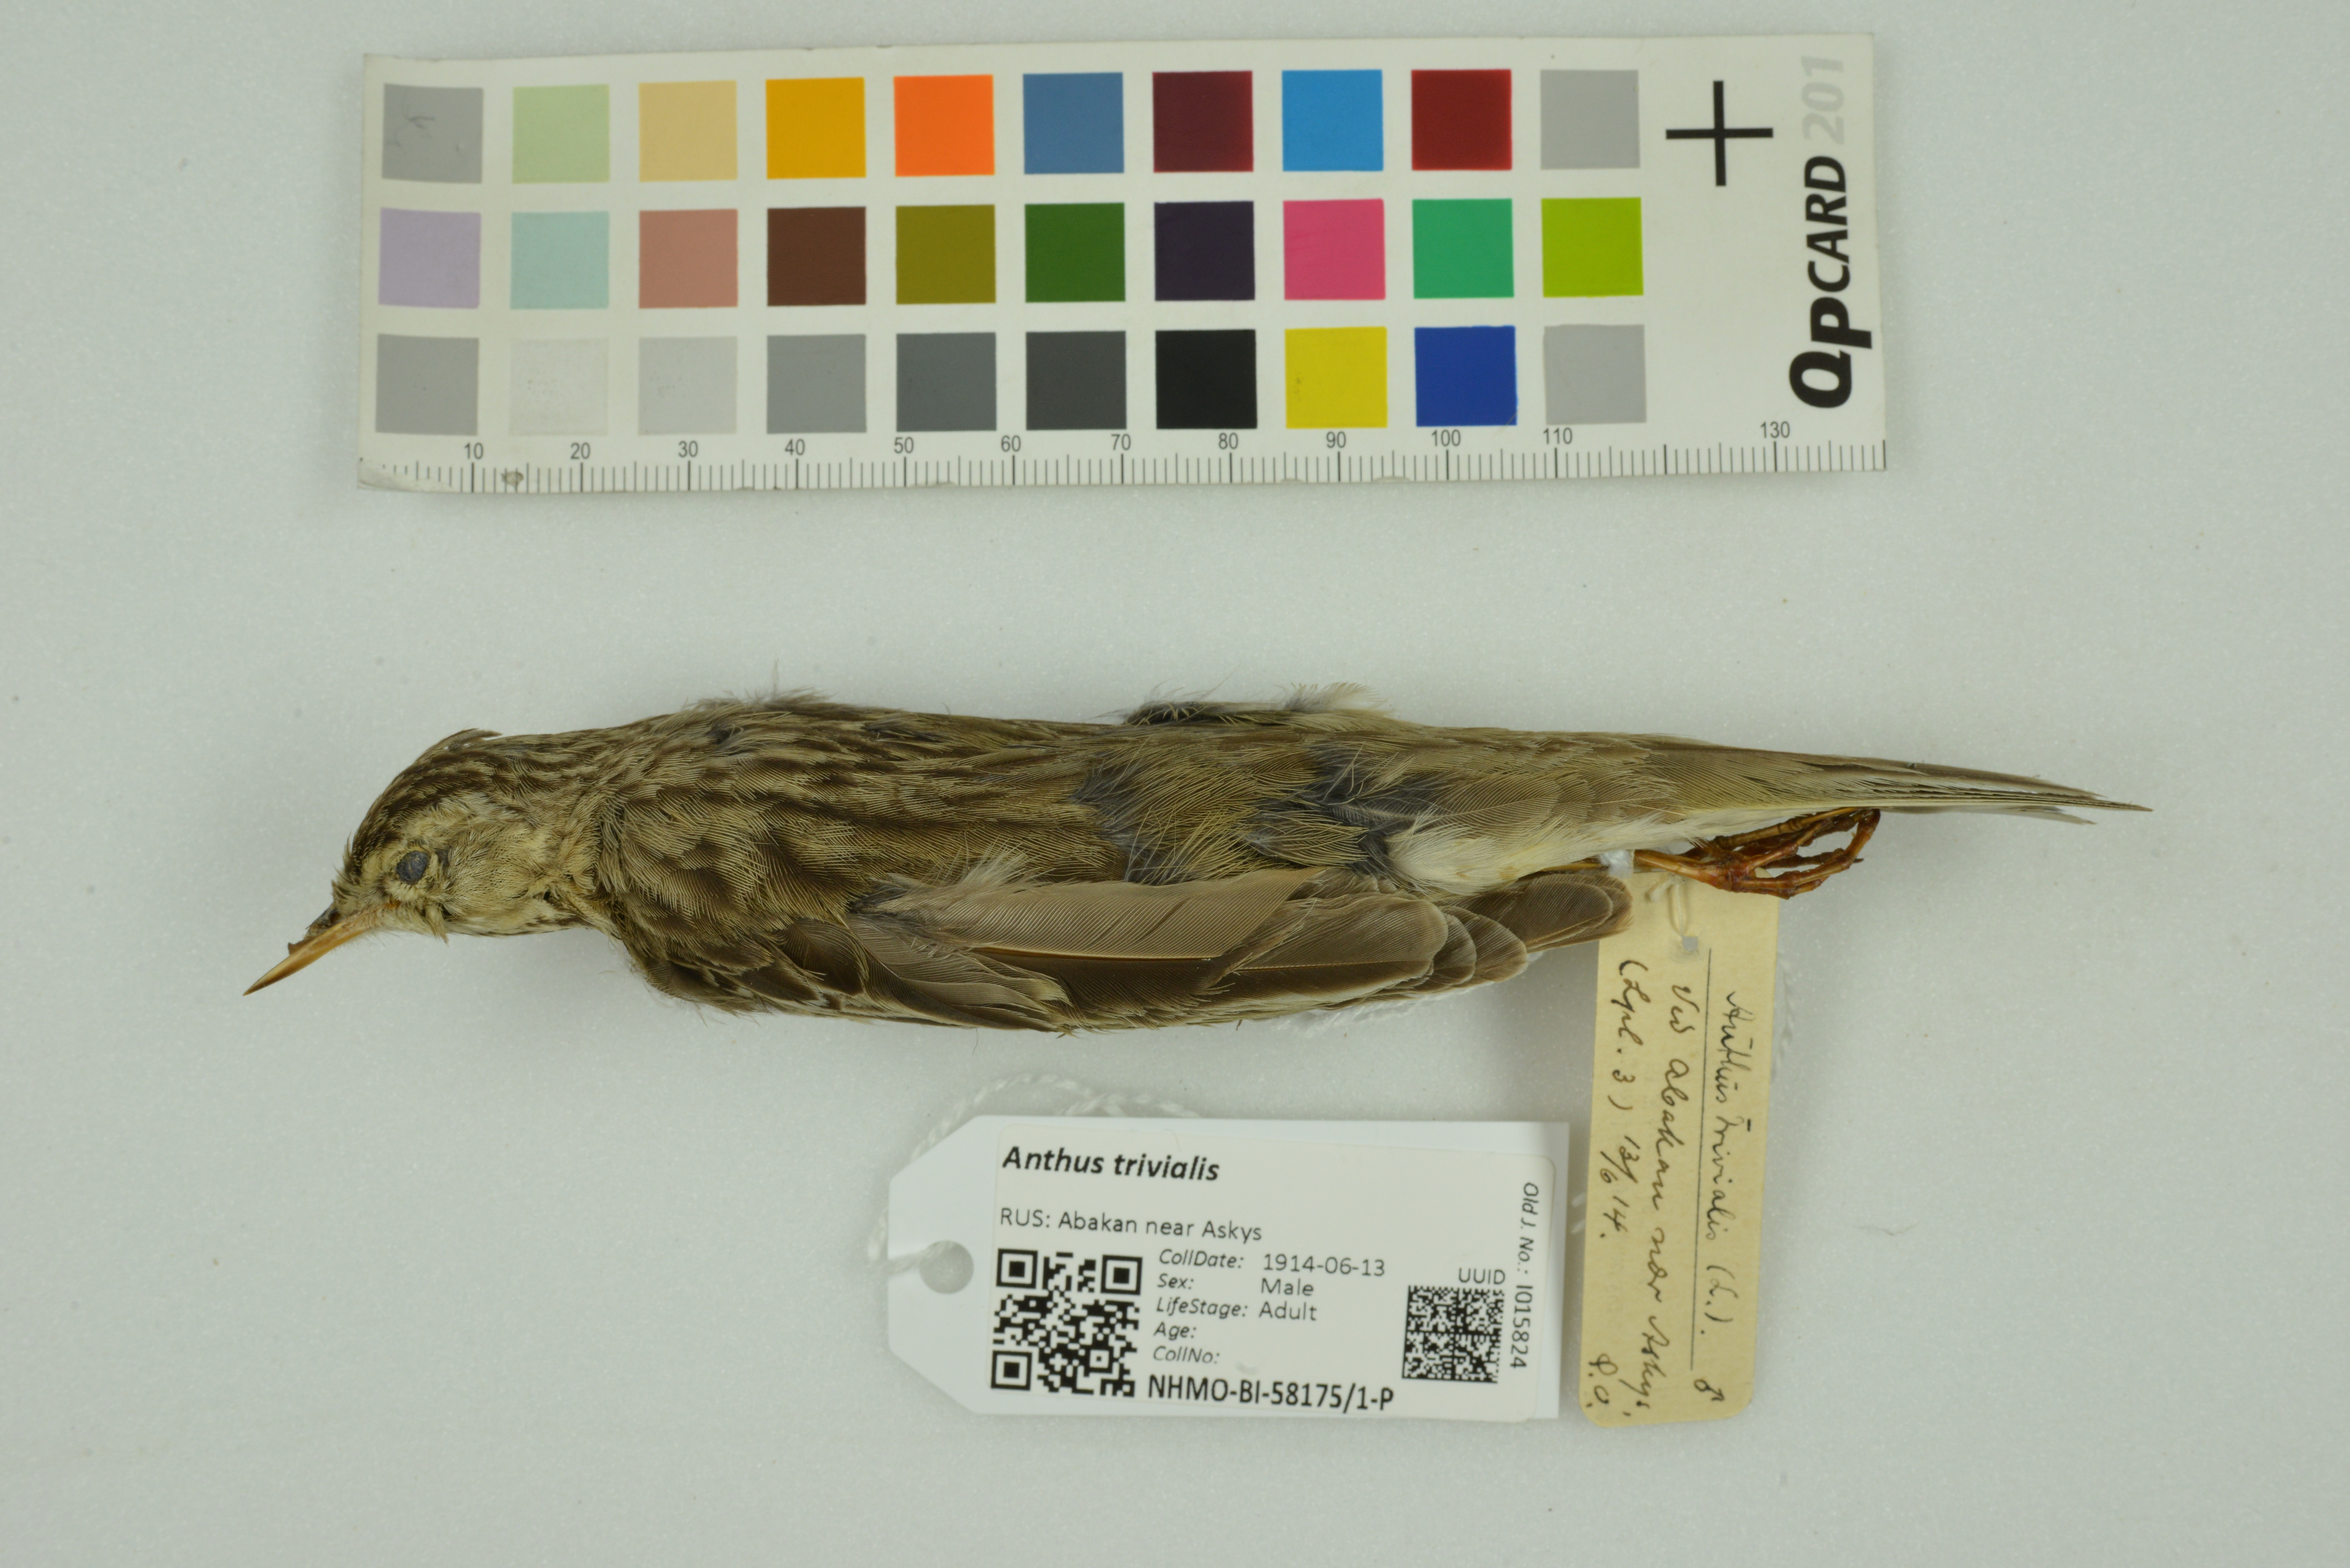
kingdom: Animalia
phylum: Chordata
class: Aves
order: Passeriformes
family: Motacillidae
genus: Anthus
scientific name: Anthus trivialis
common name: Tree pipit
